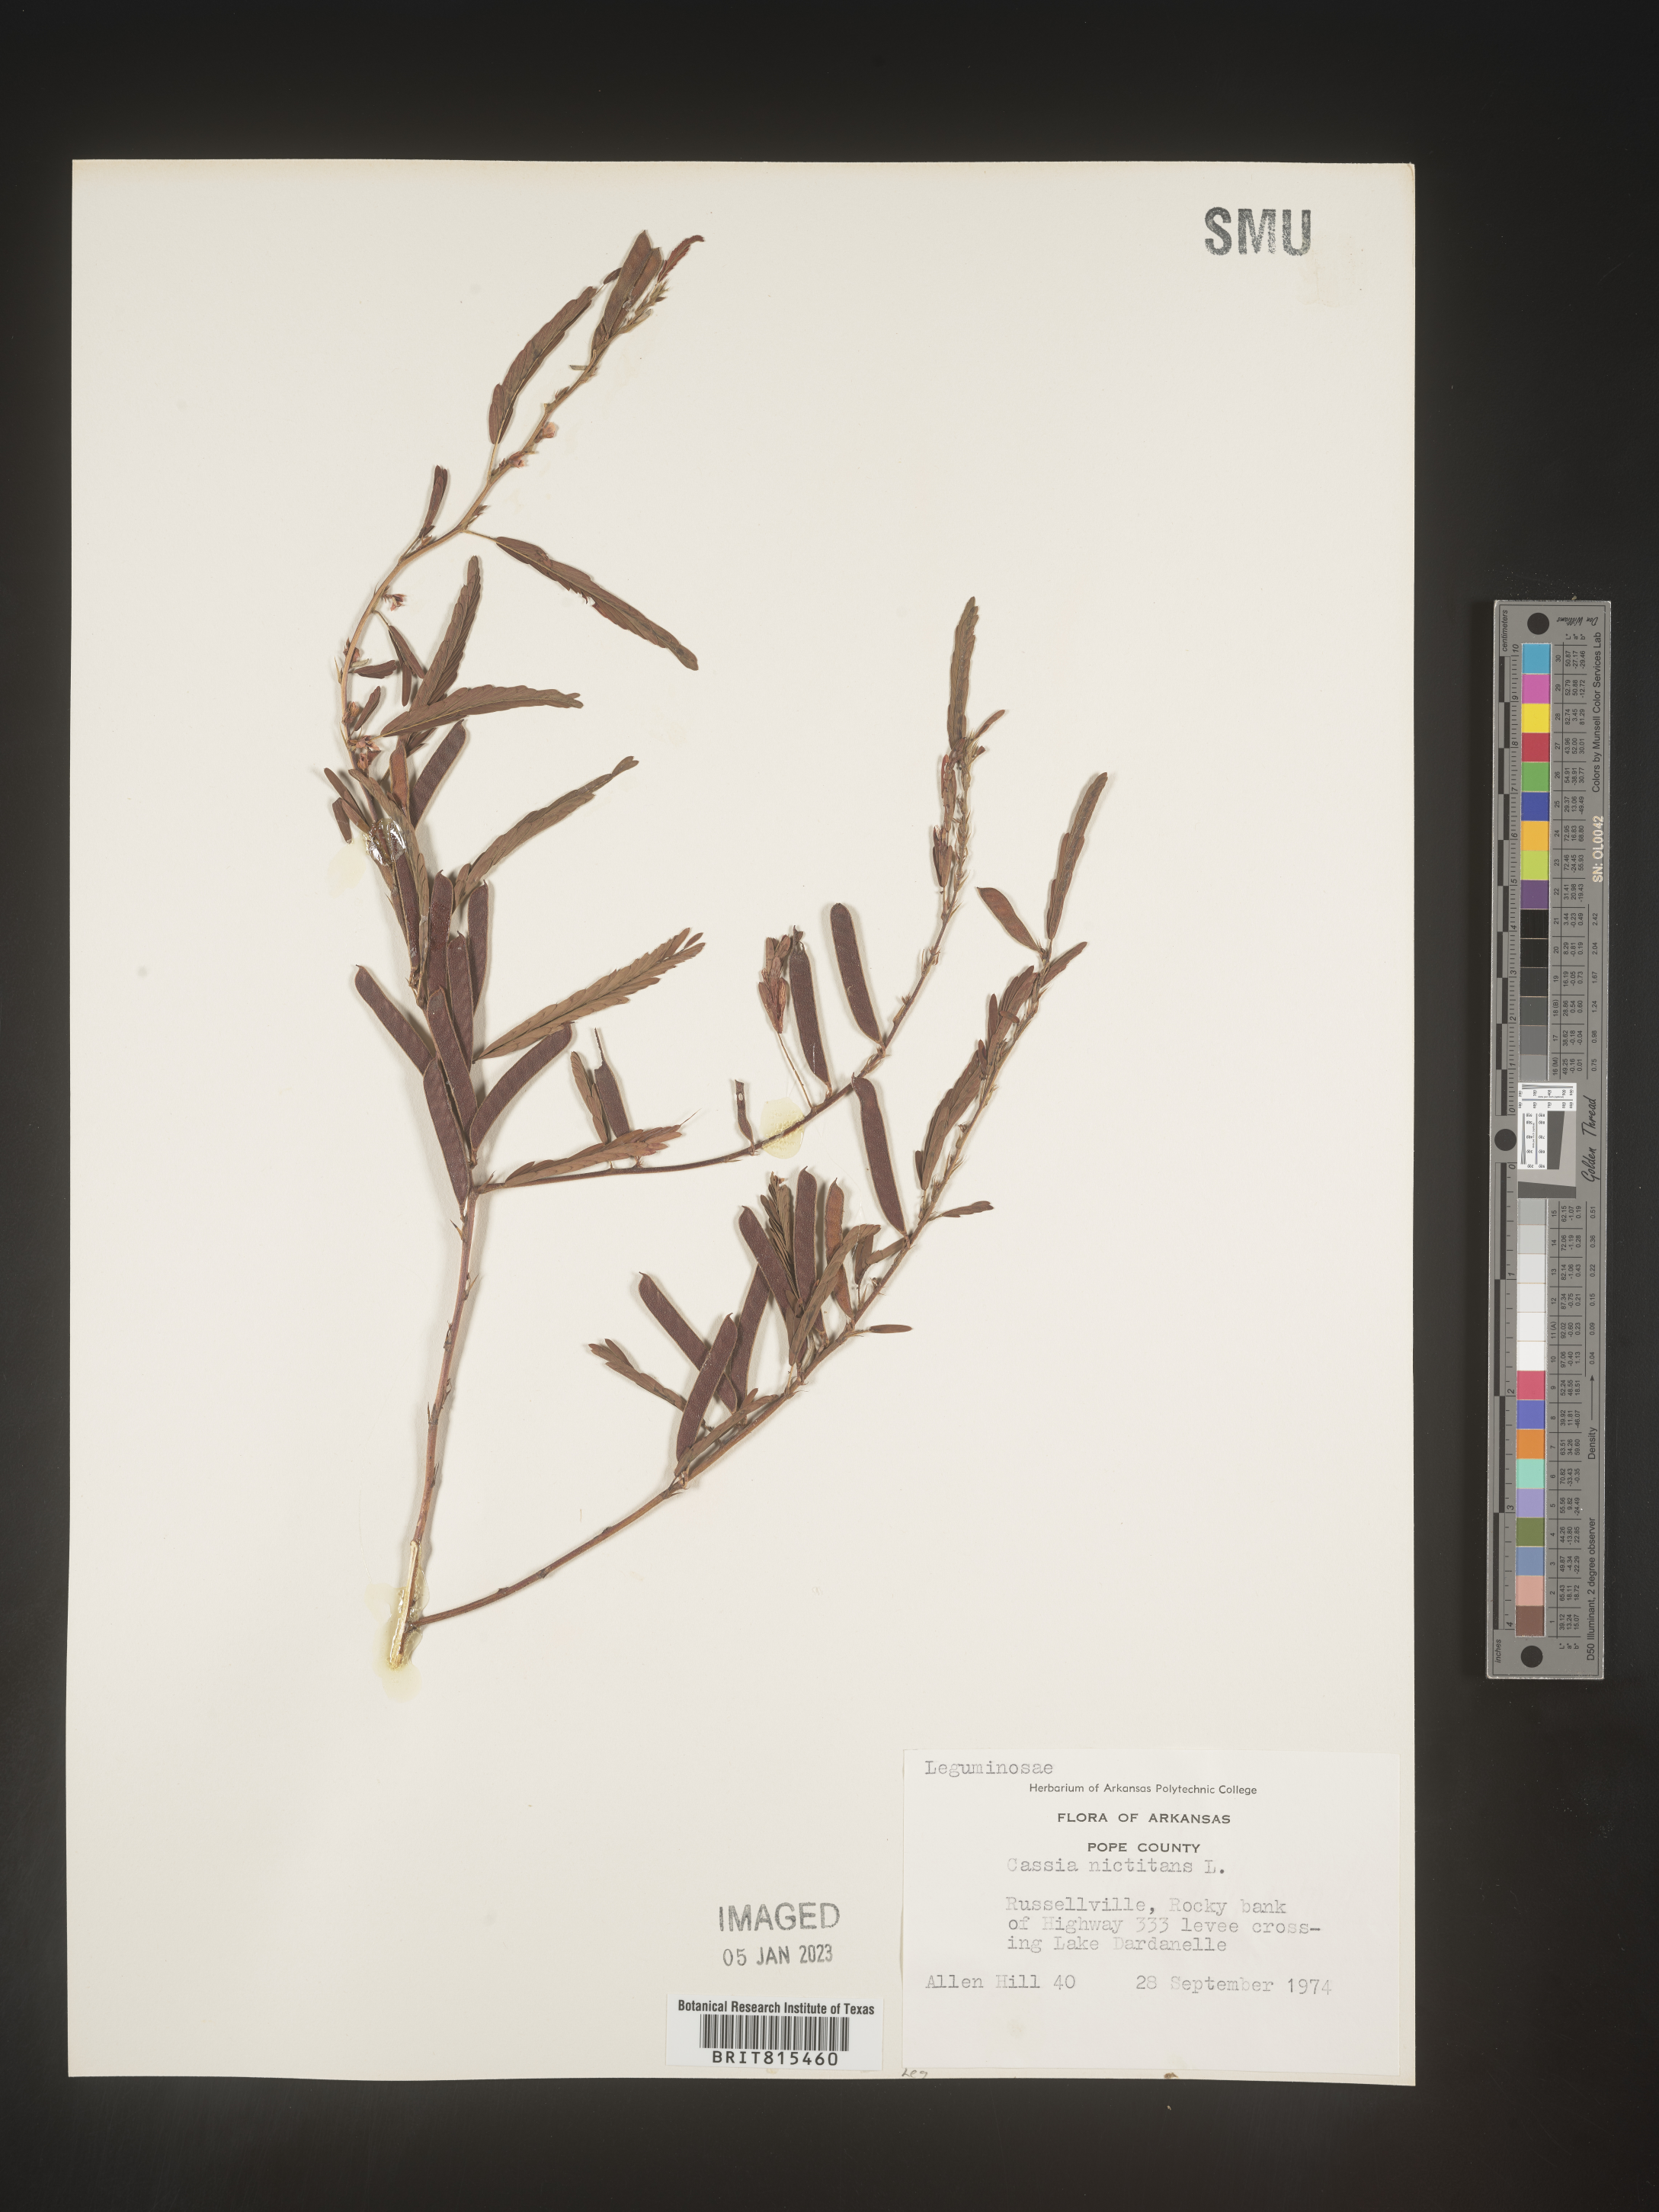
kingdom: Plantae
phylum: Tracheophyta
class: Magnoliopsida
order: Fabales
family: Fabaceae
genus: Chamaecrista
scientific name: Chamaecrista nictitans
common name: Sensitive cassia
